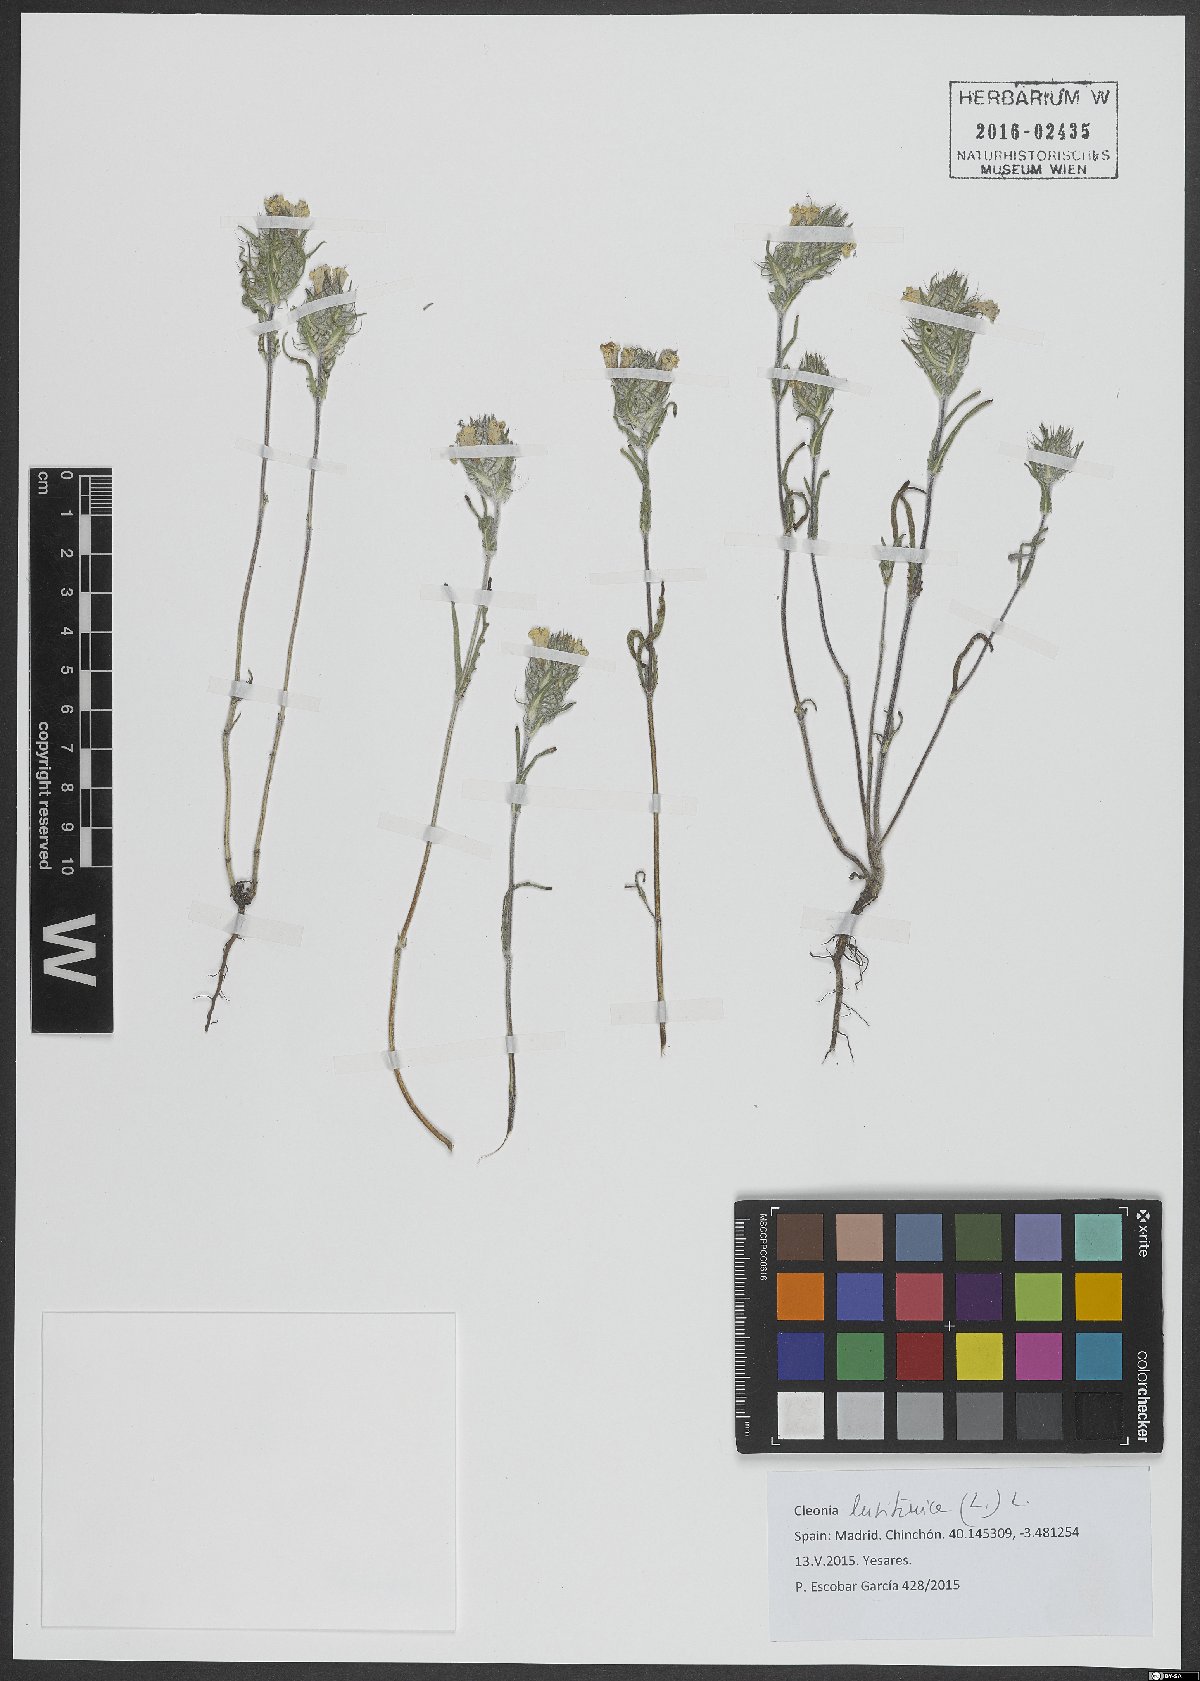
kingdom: Plantae
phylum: Tracheophyta
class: Magnoliopsida
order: Lamiales
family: Lamiaceae
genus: Cleonia
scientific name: Cleonia lusitanica
